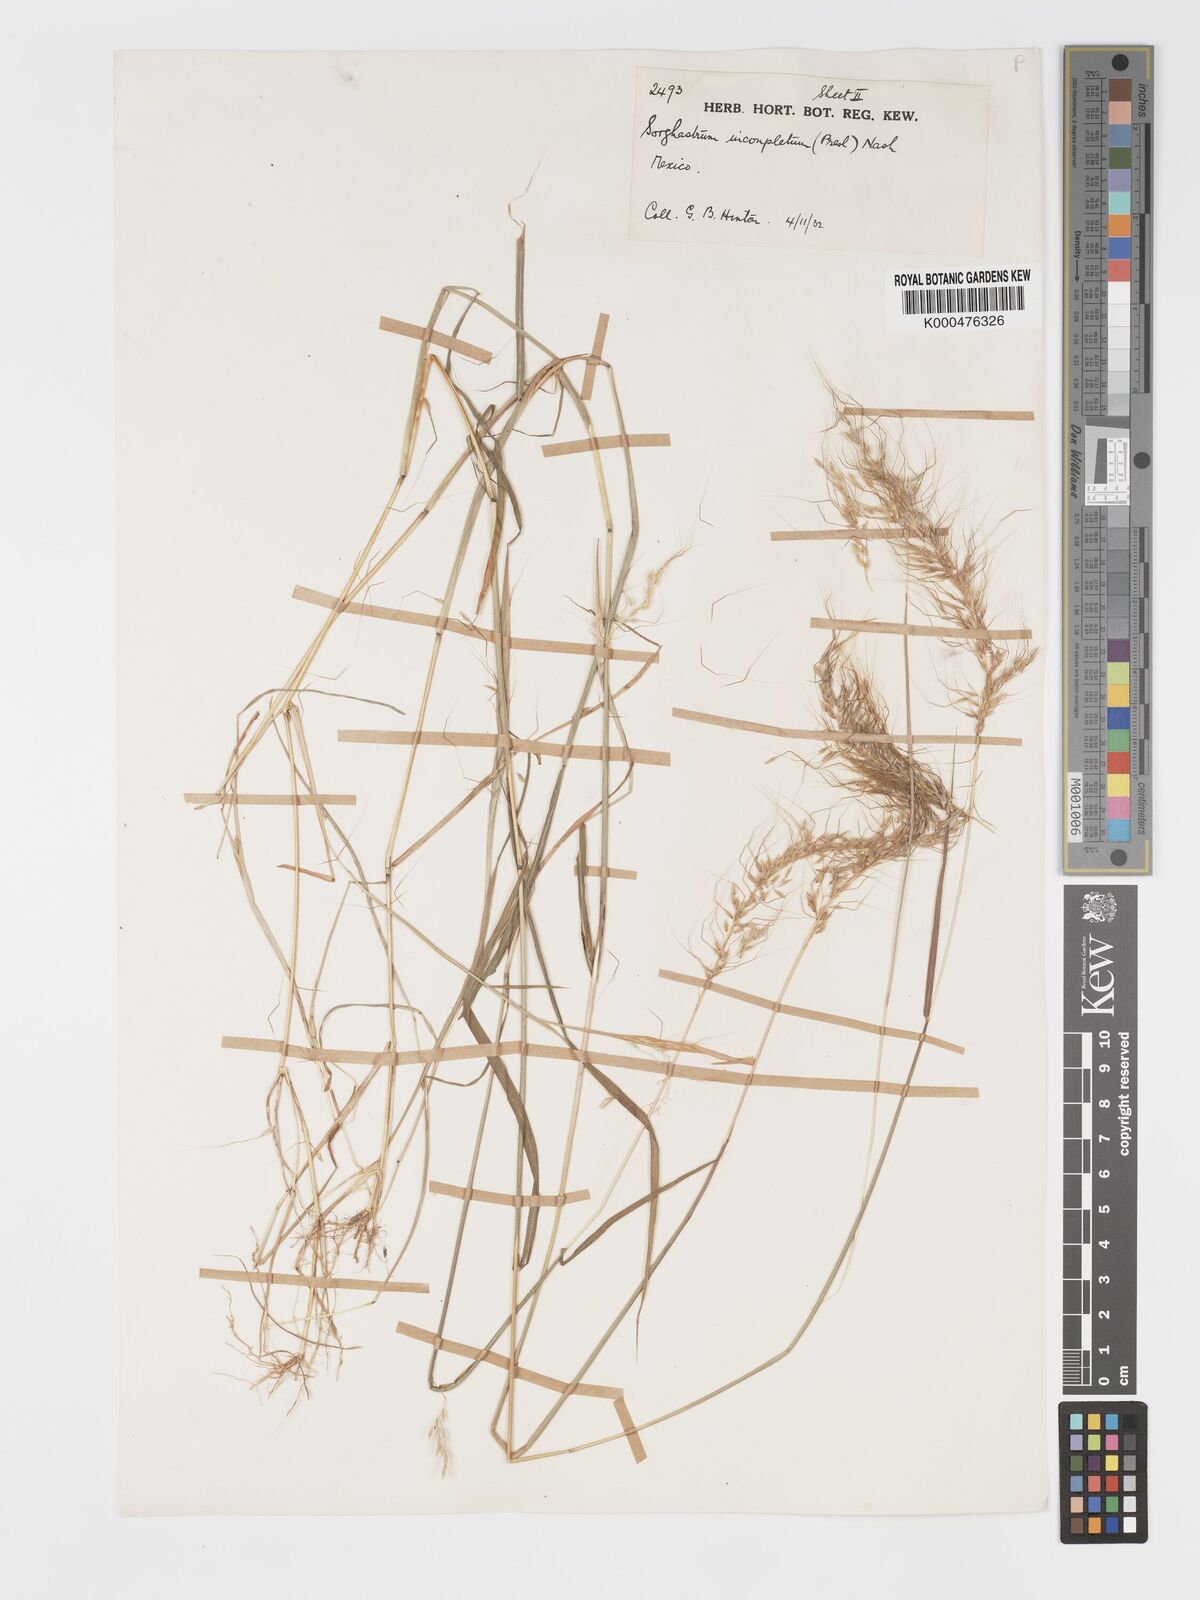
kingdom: Plantae
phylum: Tracheophyta
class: Liliopsida
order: Poales
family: Poaceae
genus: Sorghastrum
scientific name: Sorghastrum incompletum
